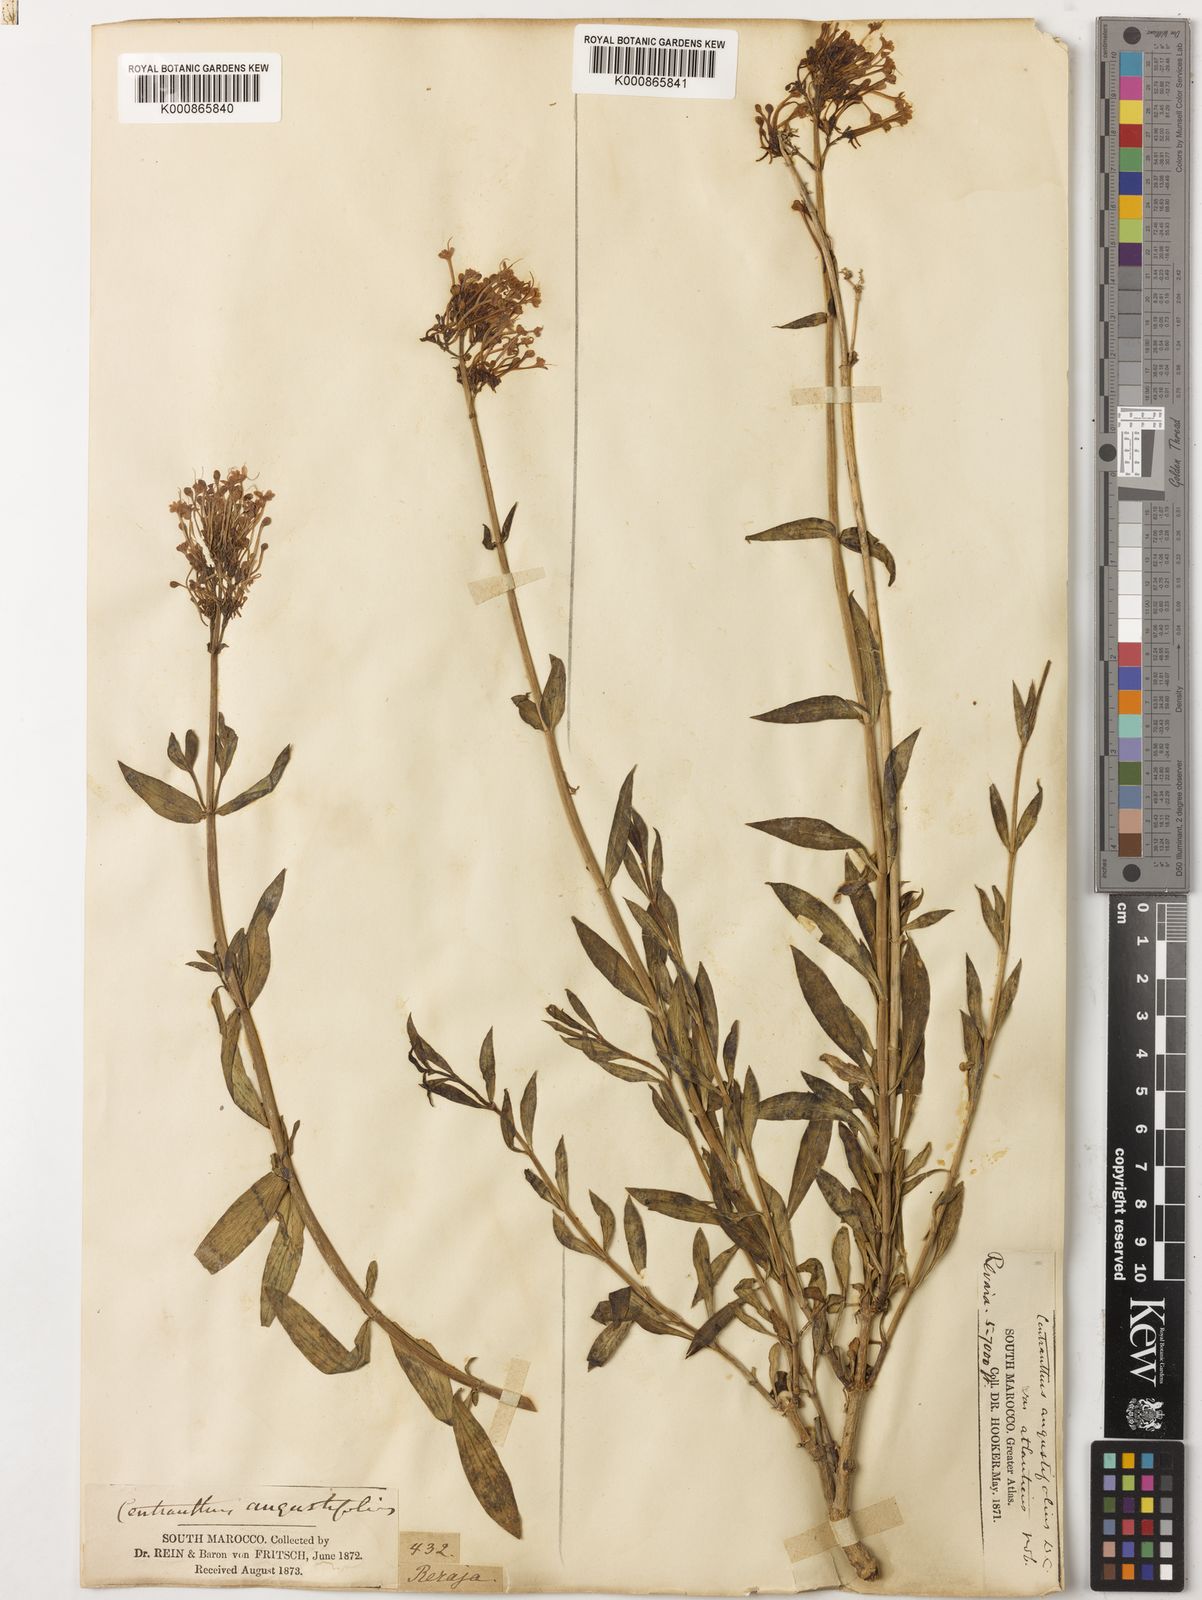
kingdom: Plantae
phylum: Tracheophyta
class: Magnoliopsida
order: Dipsacales
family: Caprifoliaceae
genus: Centranthus
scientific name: Centranthus angustifolius
